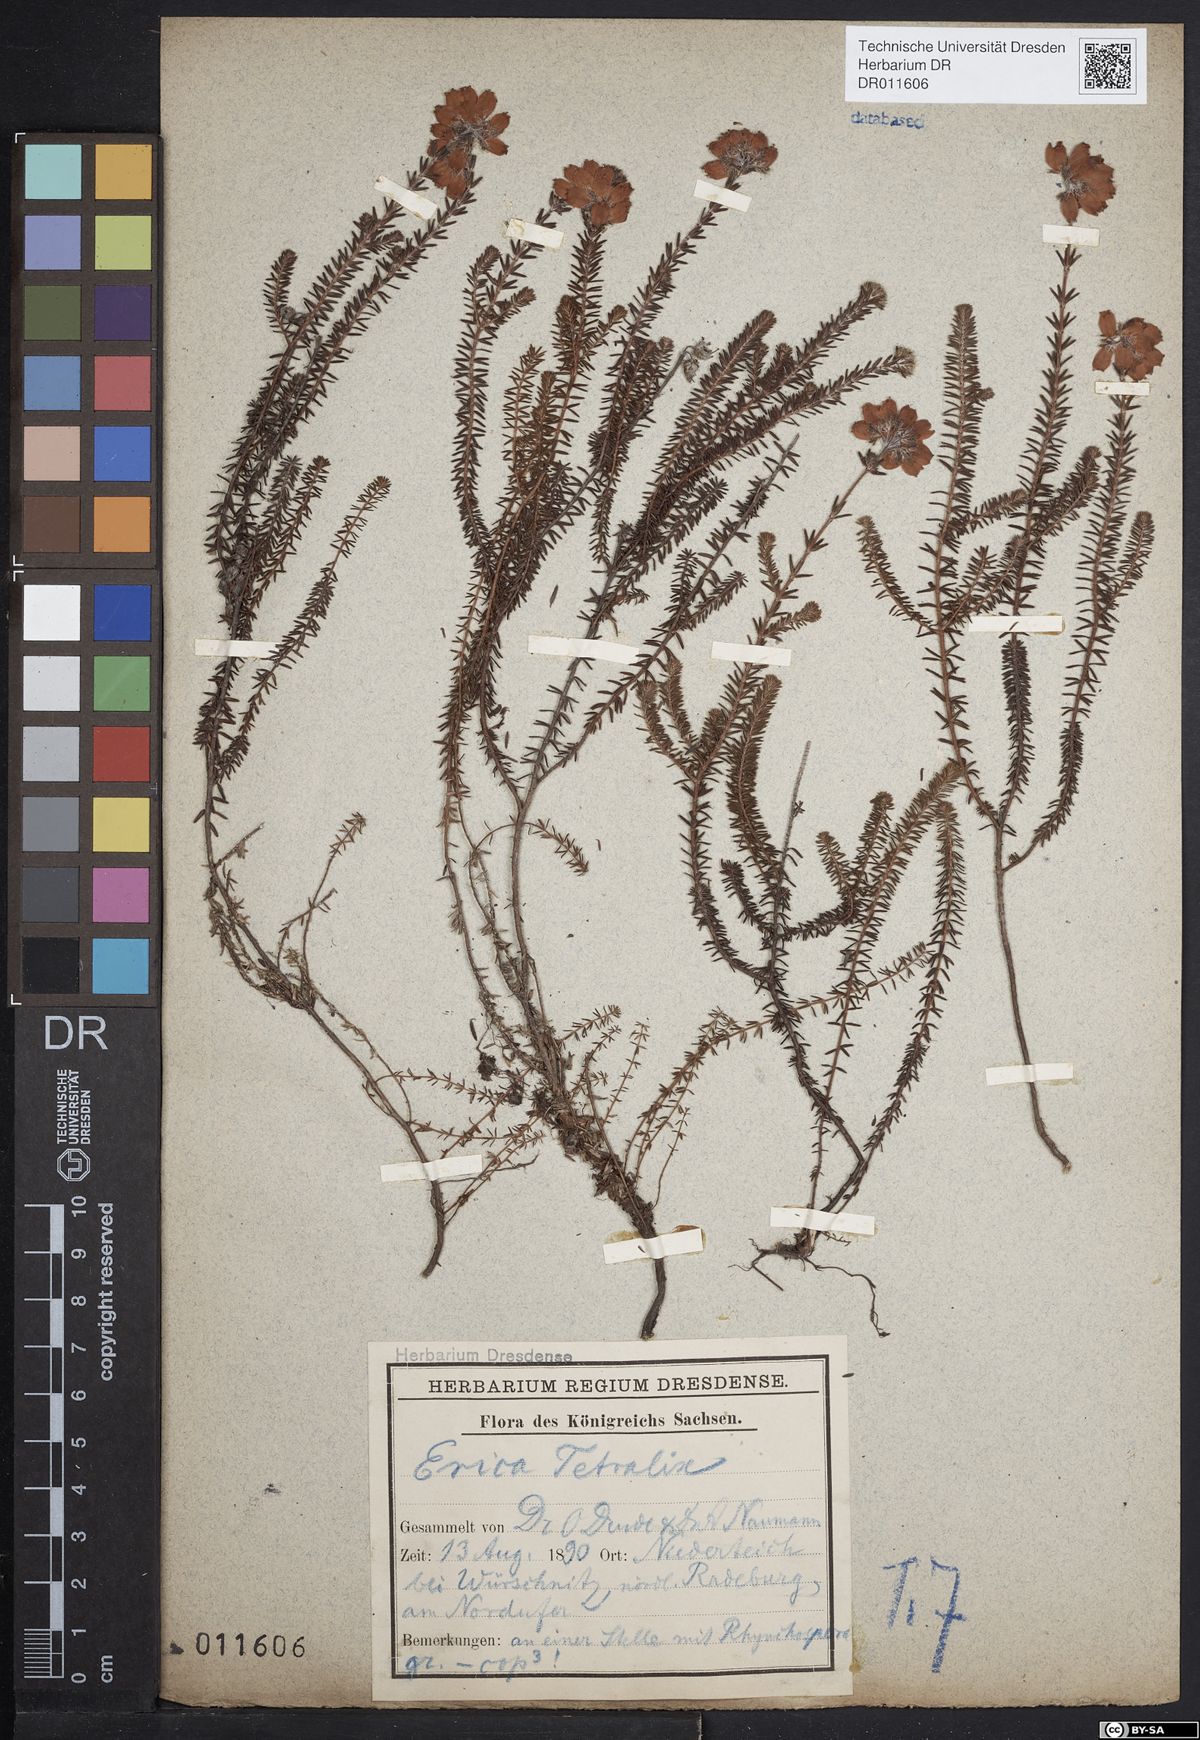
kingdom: Plantae
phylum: Tracheophyta
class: Magnoliopsida
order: Ericales
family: Ericaceae
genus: Erica
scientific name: Erica tetralix
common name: Cross-leaved heath
